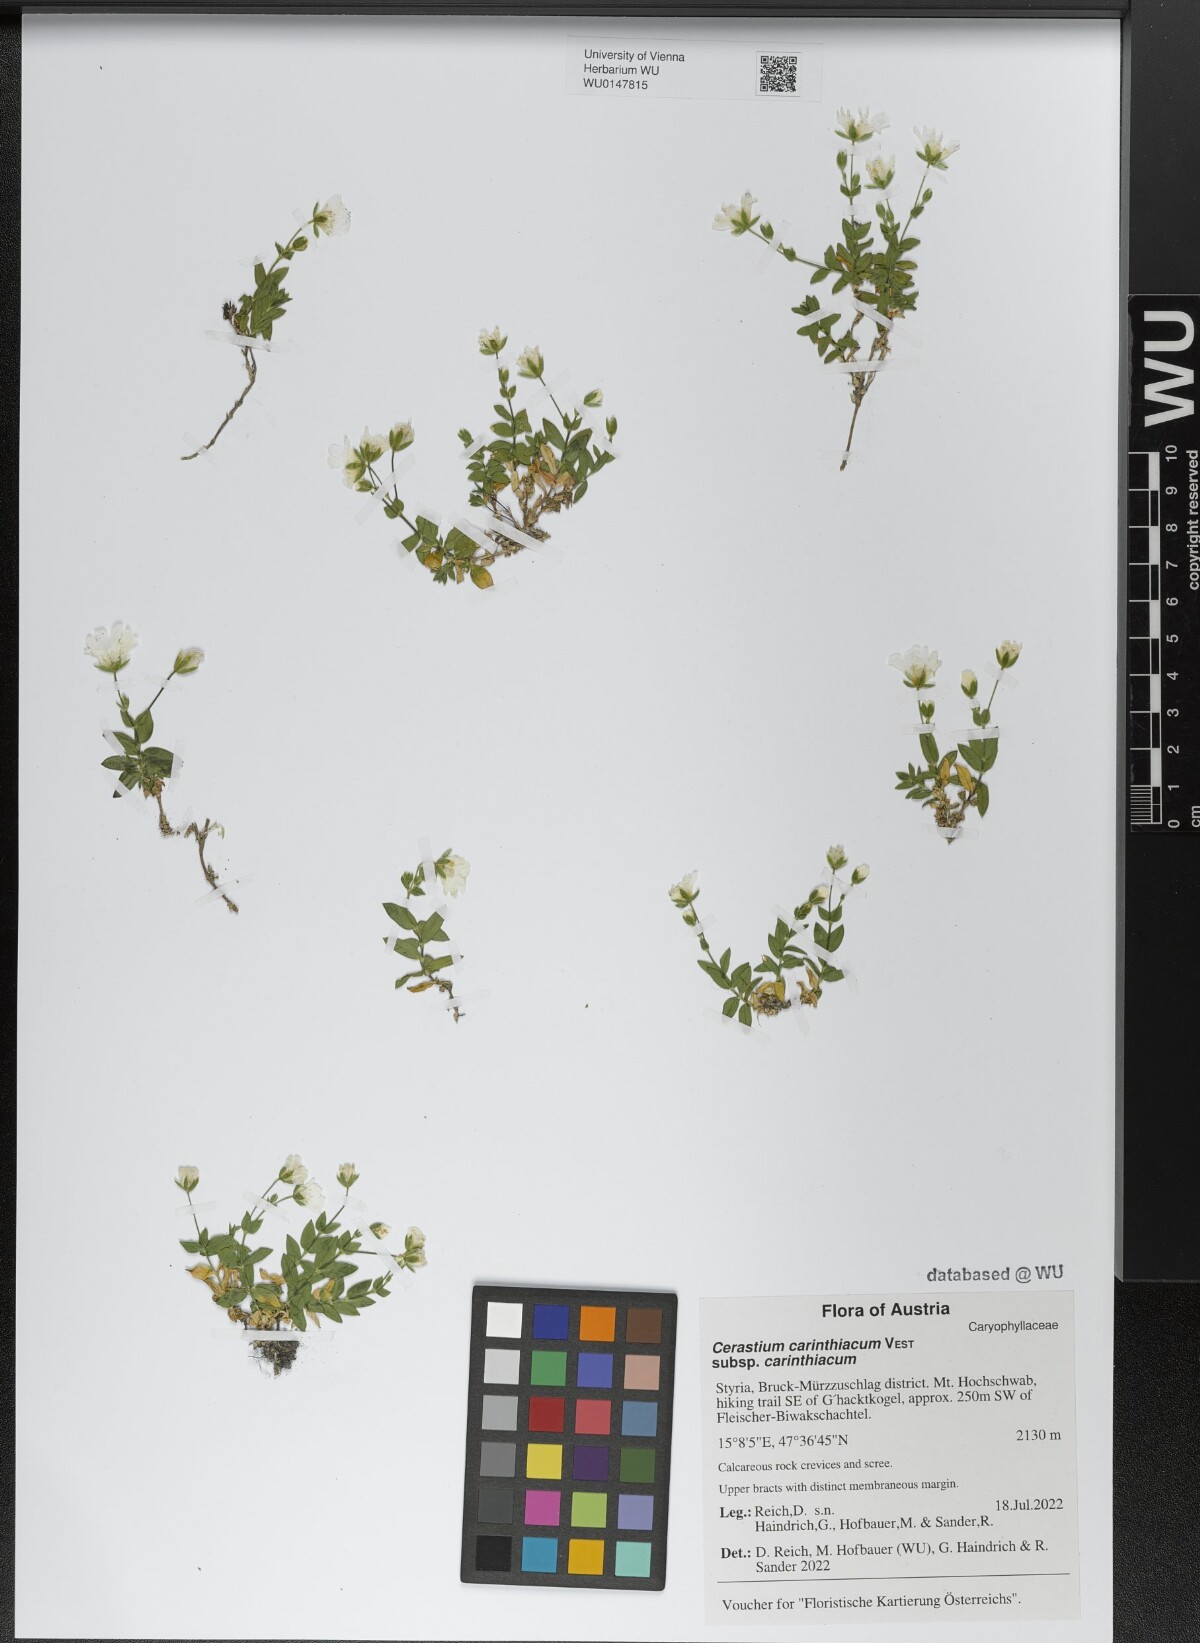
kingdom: Plantae
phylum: Tracheophyta
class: Magnoliopsida
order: Caryophyllales
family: Caryophyllaceae
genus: Cerastium
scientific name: Cerastium carinthiacum
